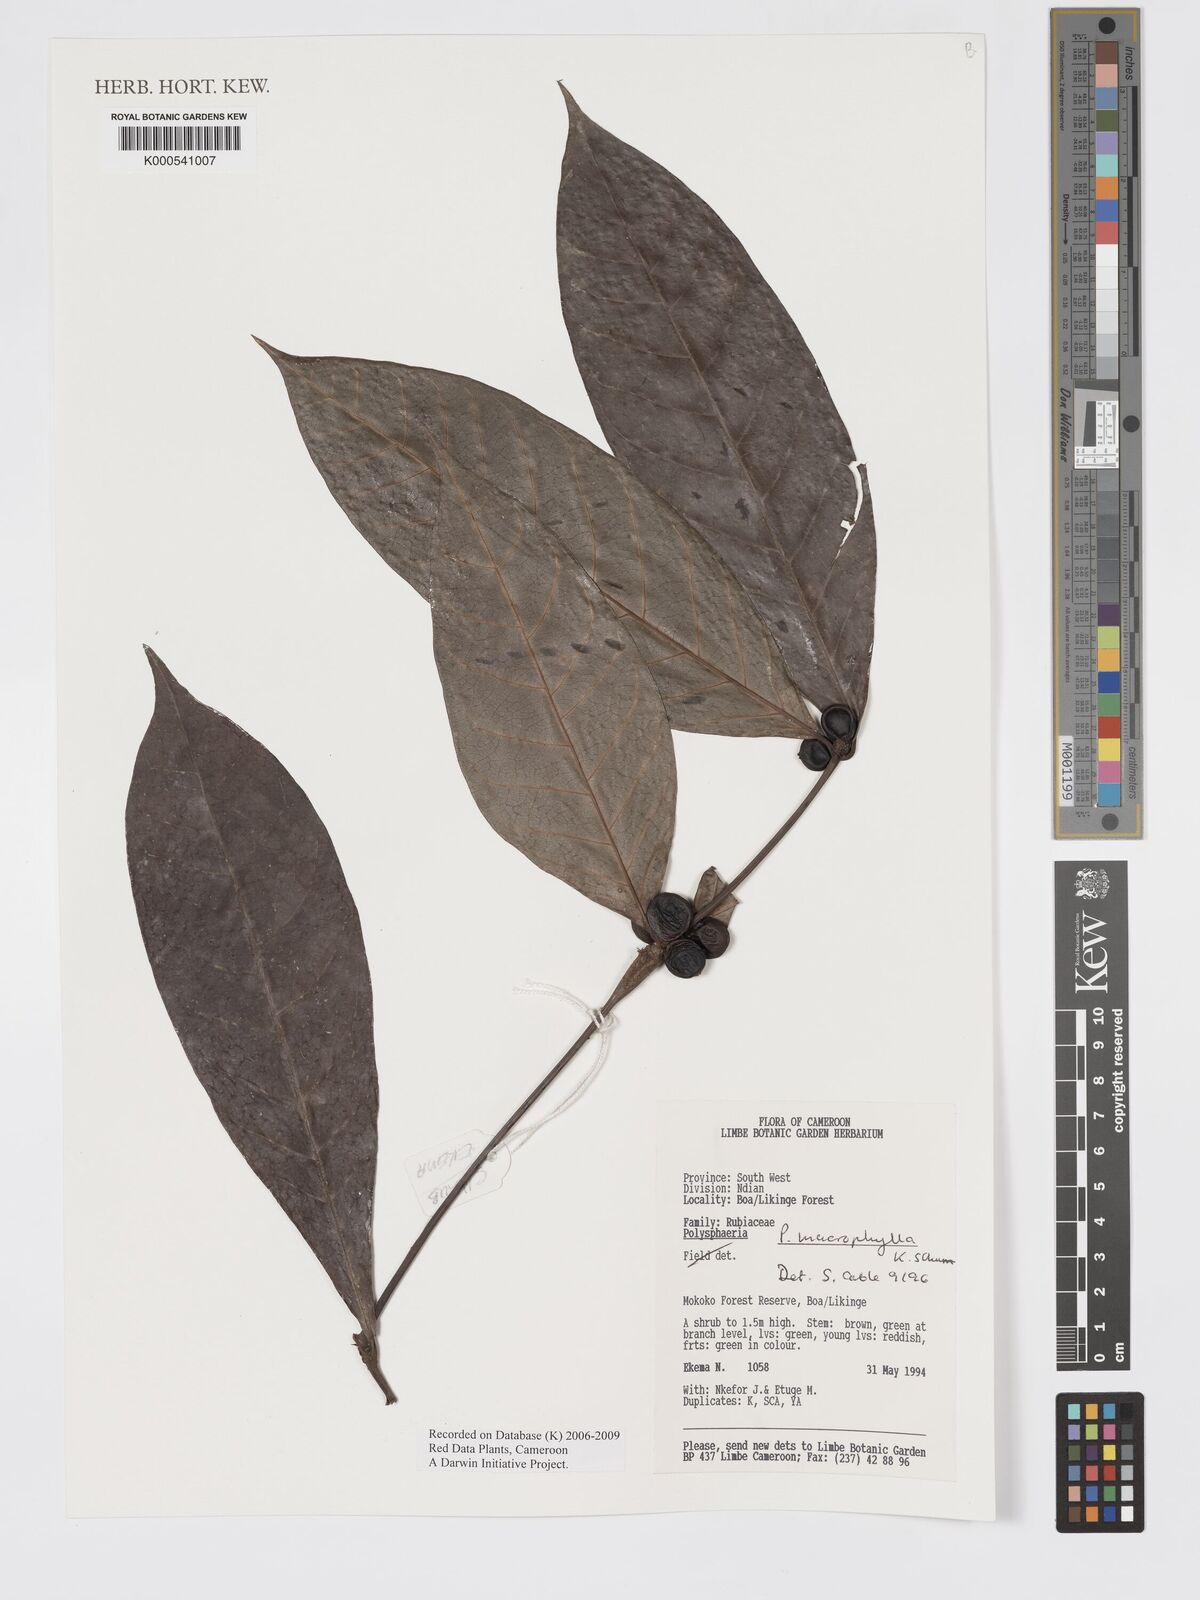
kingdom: Plantae
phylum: Tracheophyta
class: Magnoliopsida
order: Gentianales
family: Rubiaceae
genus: Polysphaeria
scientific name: Polysphaeria macrophylla
